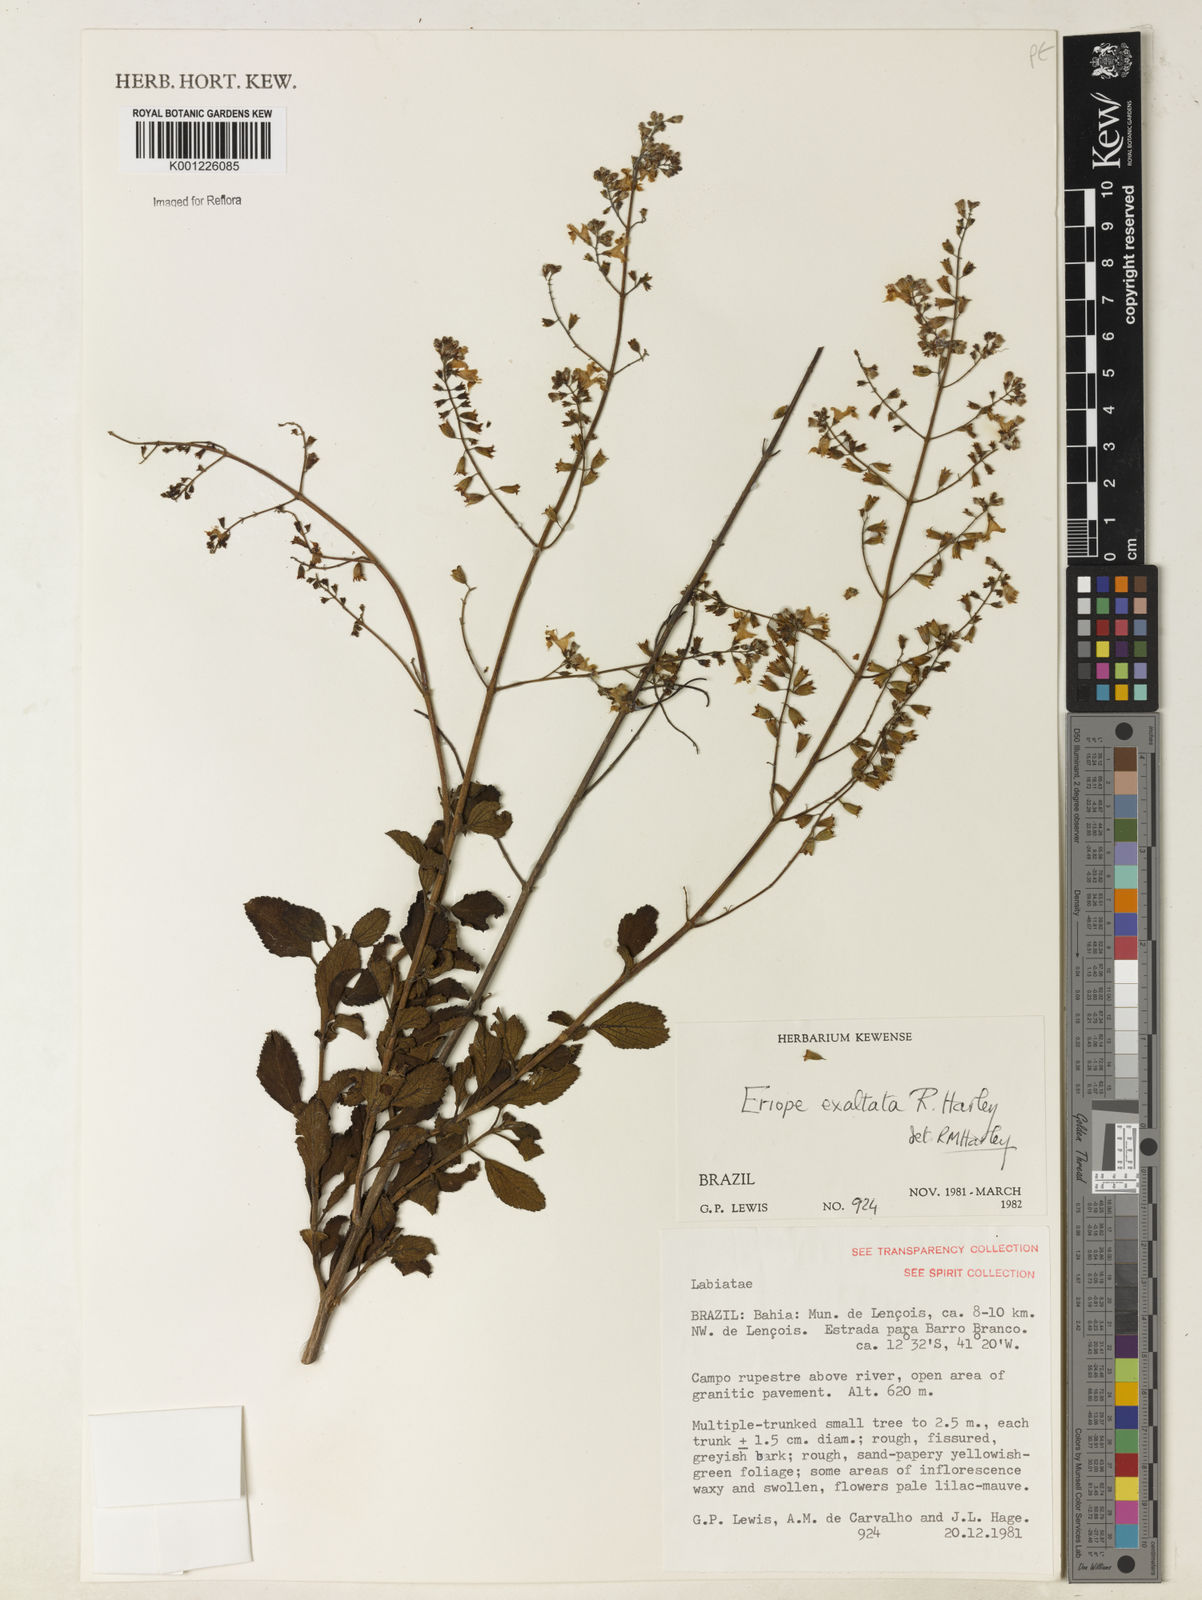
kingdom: Plantae
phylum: Tracheophyta
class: Magnoliopsida
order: Lamiales
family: Lamiaceae
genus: Eriope
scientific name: Eriope exaltata
